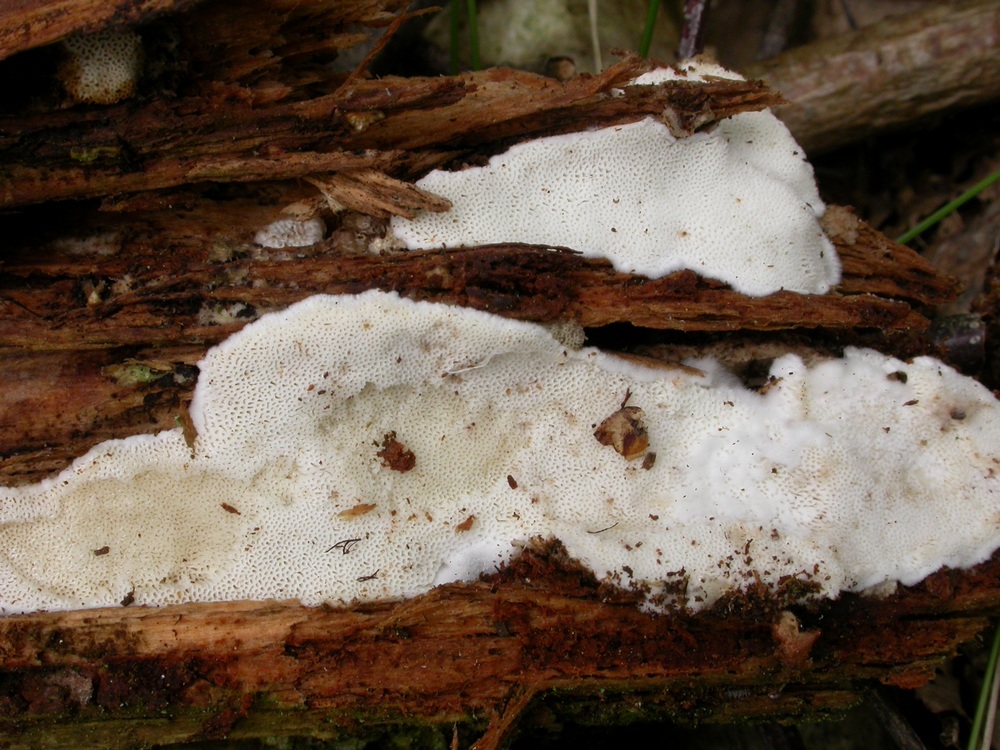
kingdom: Fungi
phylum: Basidiomycota
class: Agaricomycetes
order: Polyporales
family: Gelatoporiaceae
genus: Cinereomyces
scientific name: Cinereomyces lindbladii
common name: almindelig gråporesvamp
